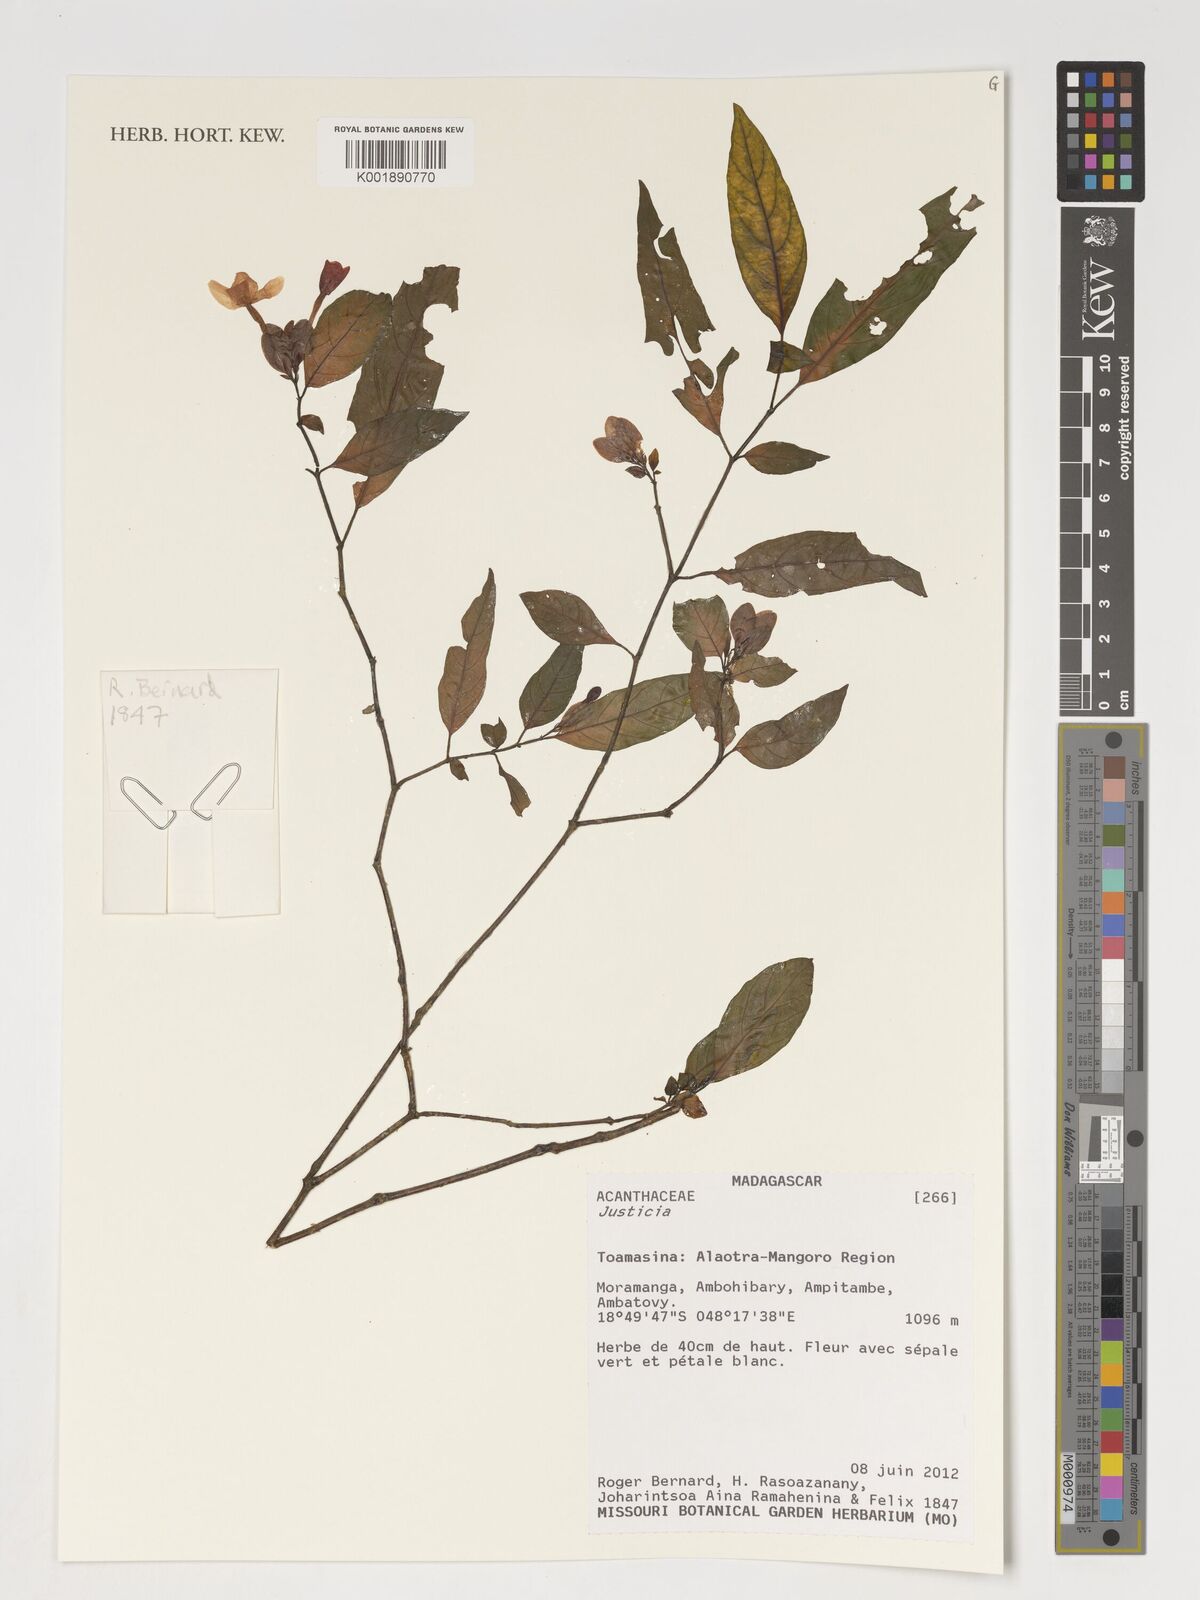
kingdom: Plantae
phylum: Tracheophyta
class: Magnoliopsida
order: Lamiales
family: Acanthaceae
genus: Justicia
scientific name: Justicia
